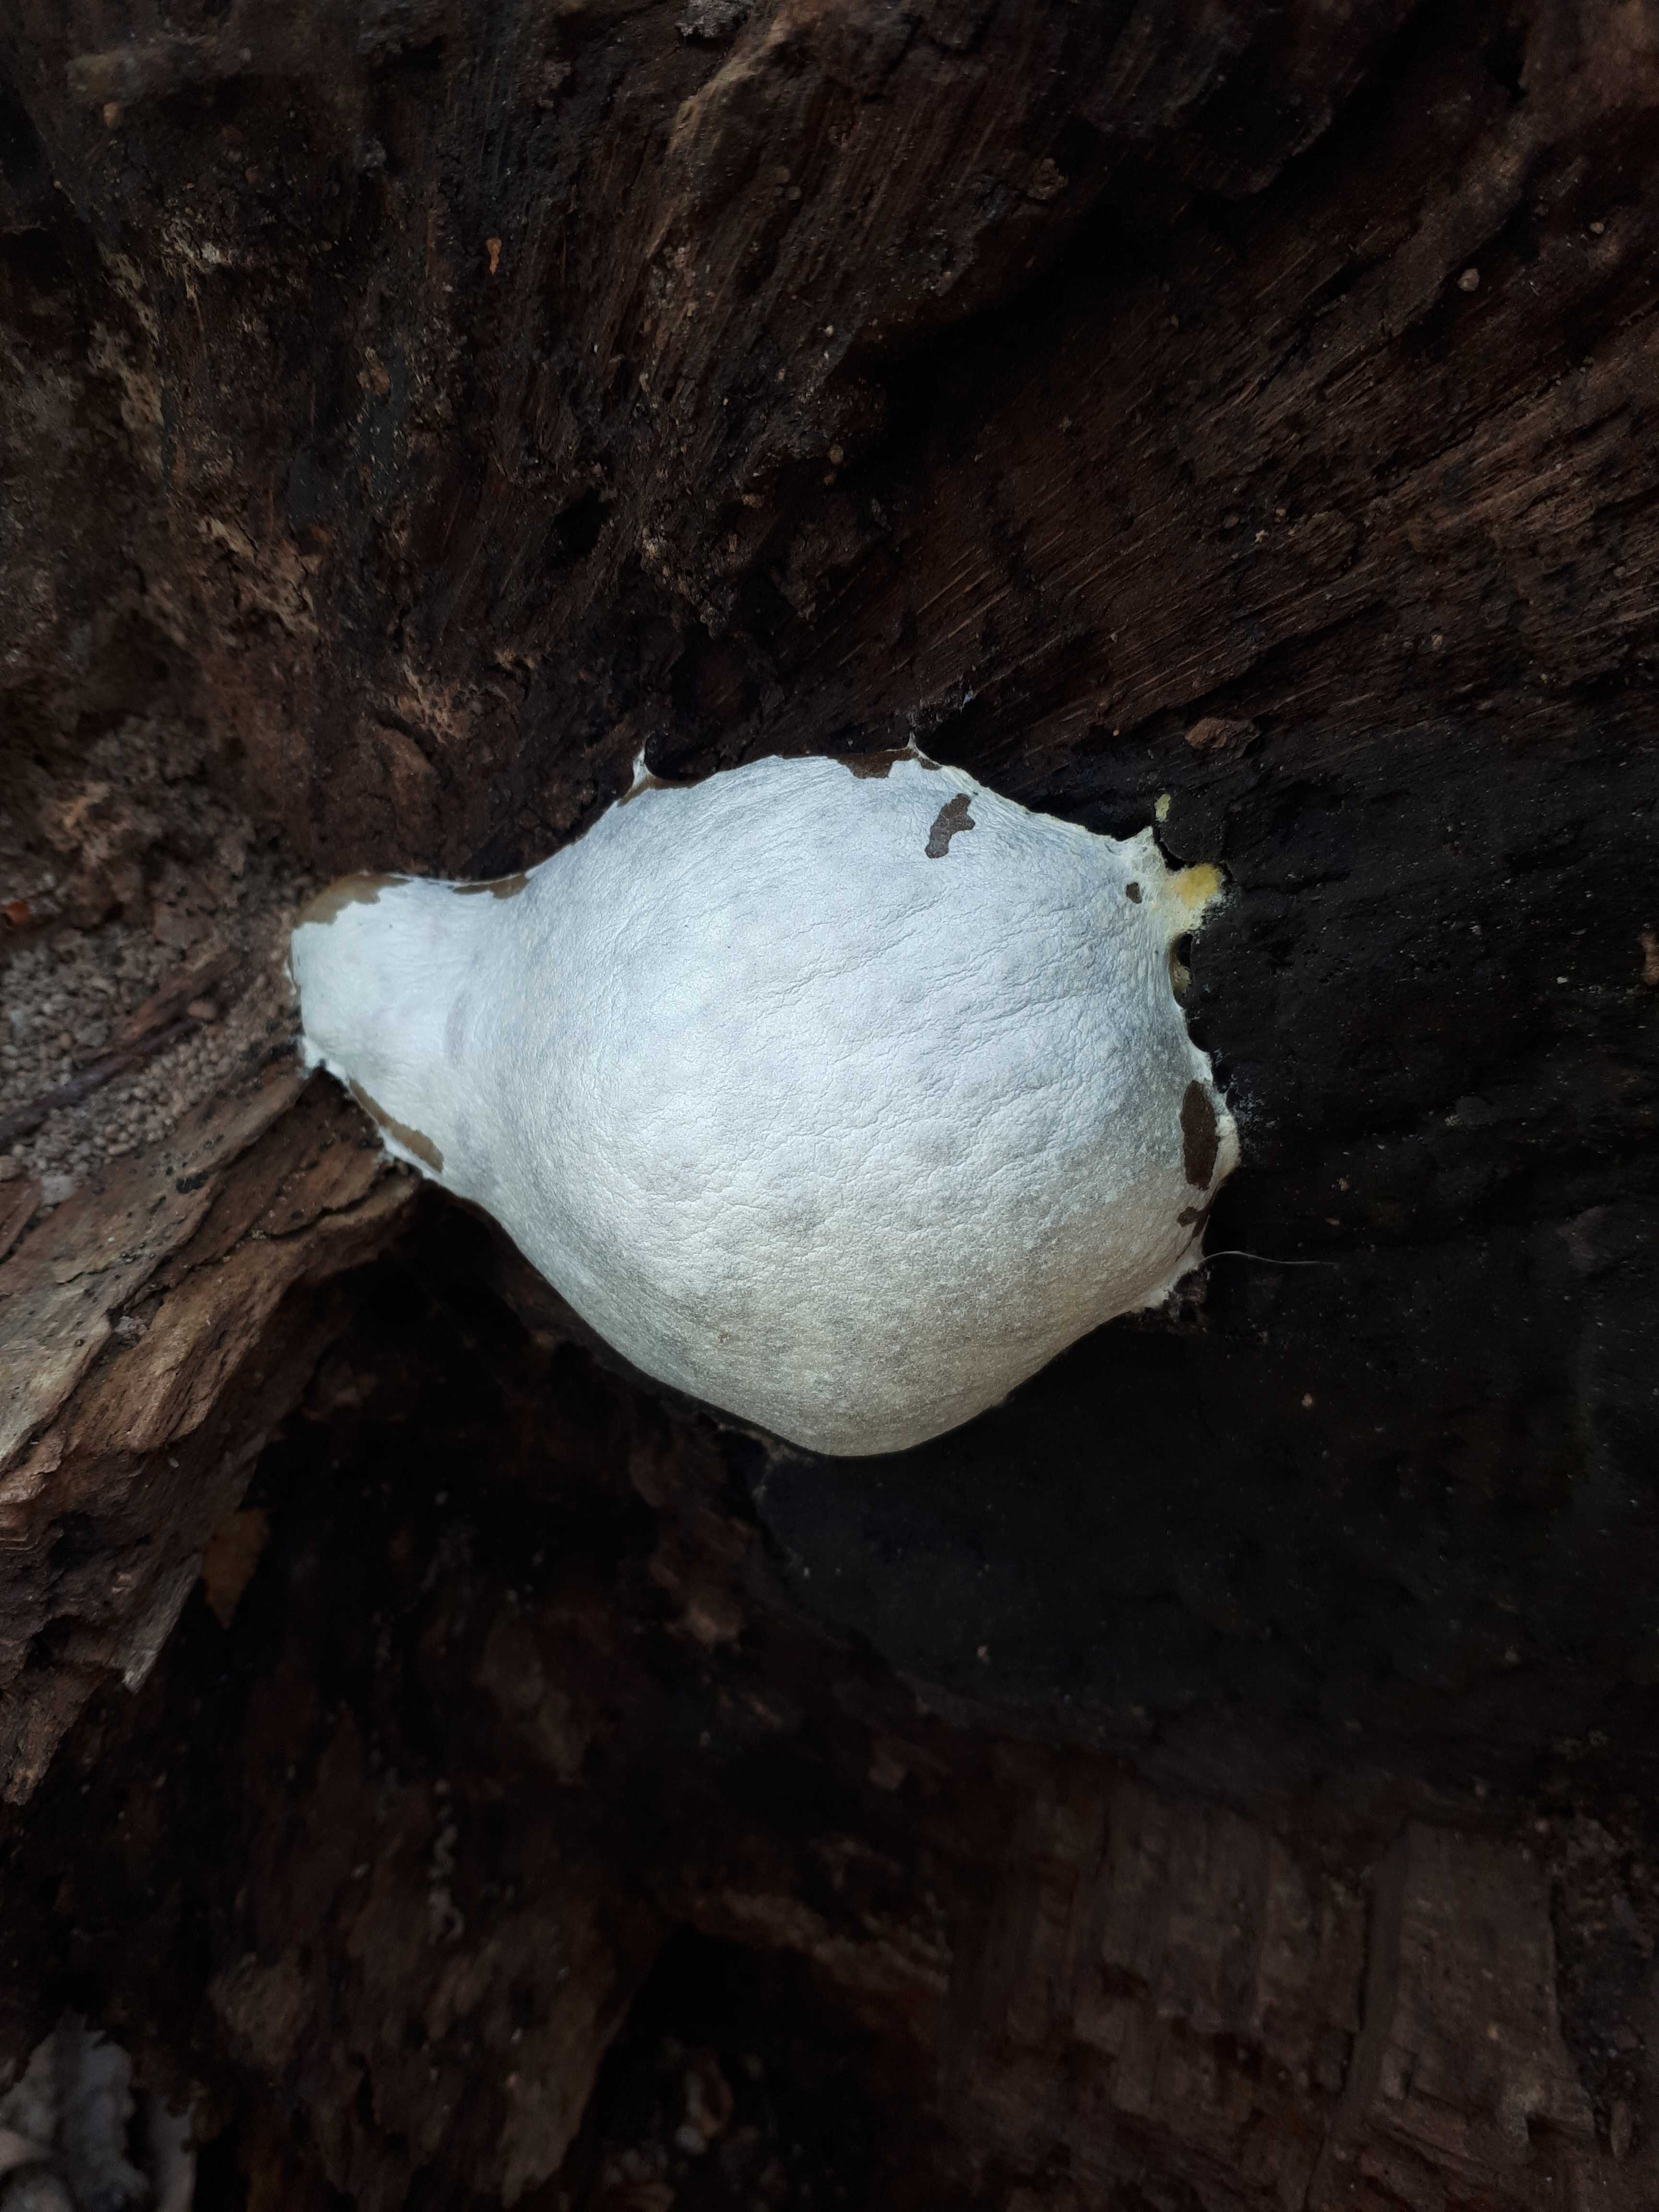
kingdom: Protozoa
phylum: Mycetozoa
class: Myxomycetes
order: Cribrariales
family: Tubiferaceae
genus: Reticularia
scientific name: Reticularia lycoperdon
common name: skinnende støvpude
